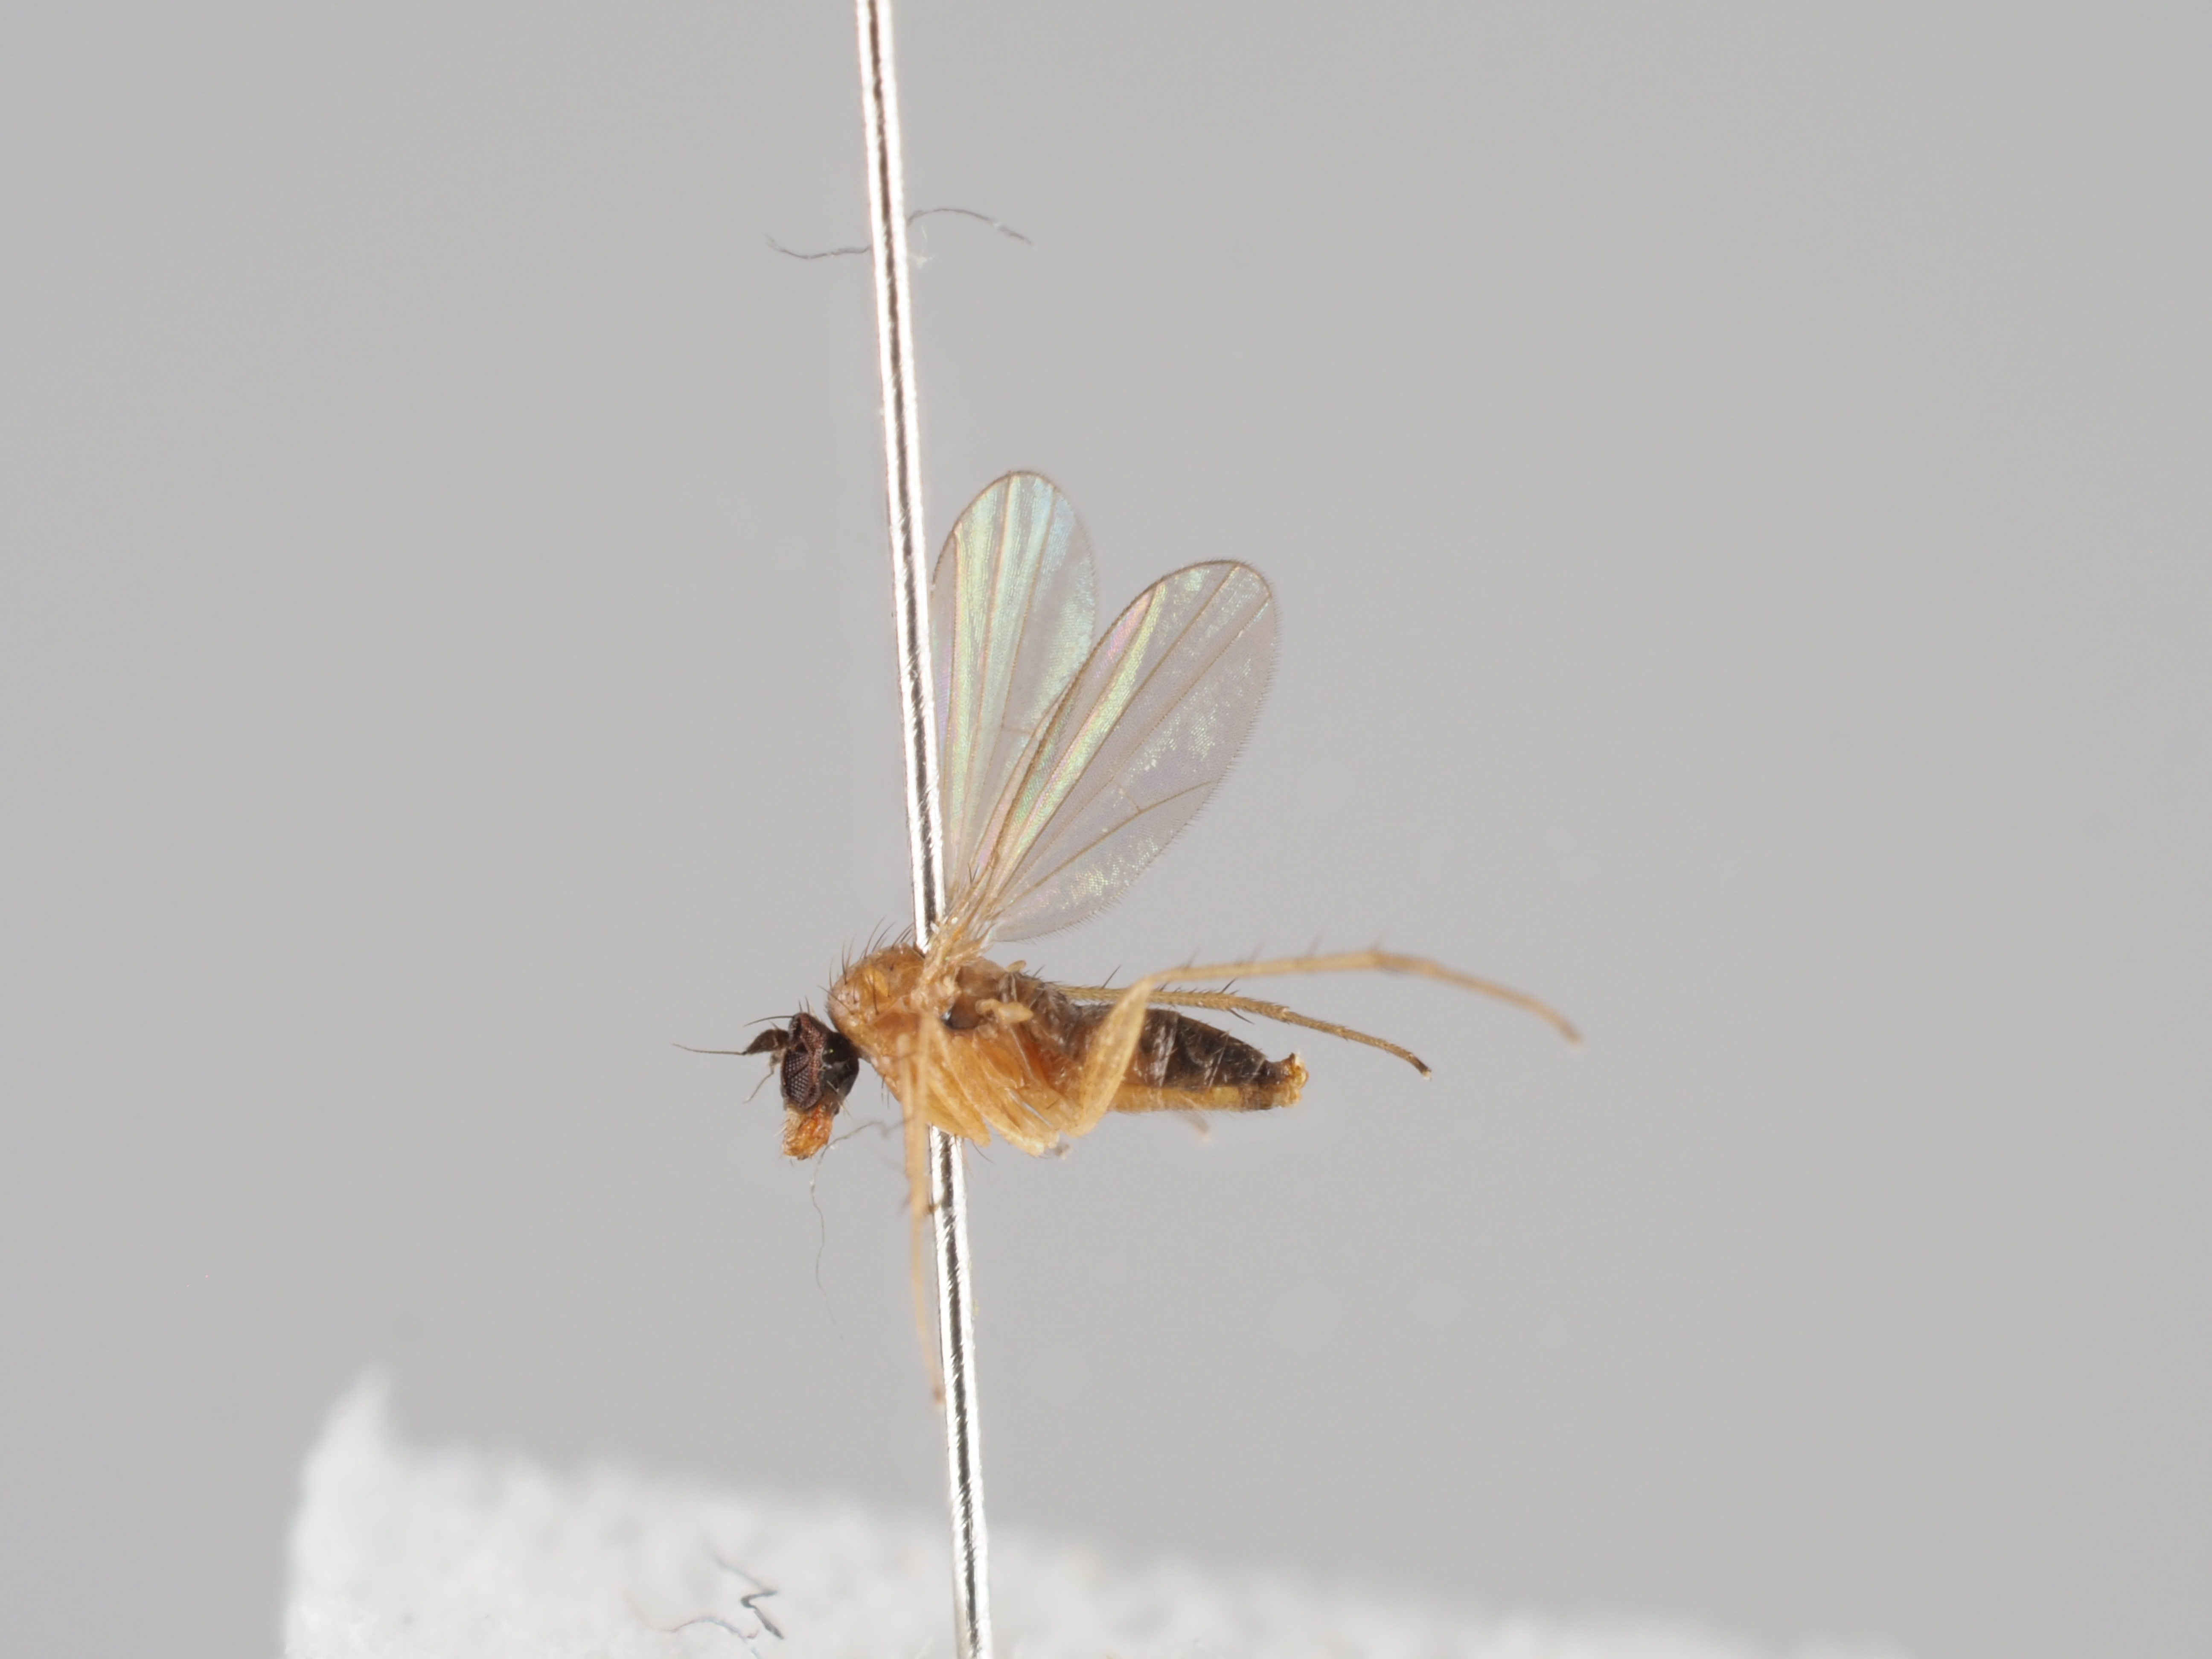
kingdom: Animalia
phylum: Arthropoda
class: Insecta
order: Diptera
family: Dolichopodidae
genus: Achalcus
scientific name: Achalcus flavicollis
